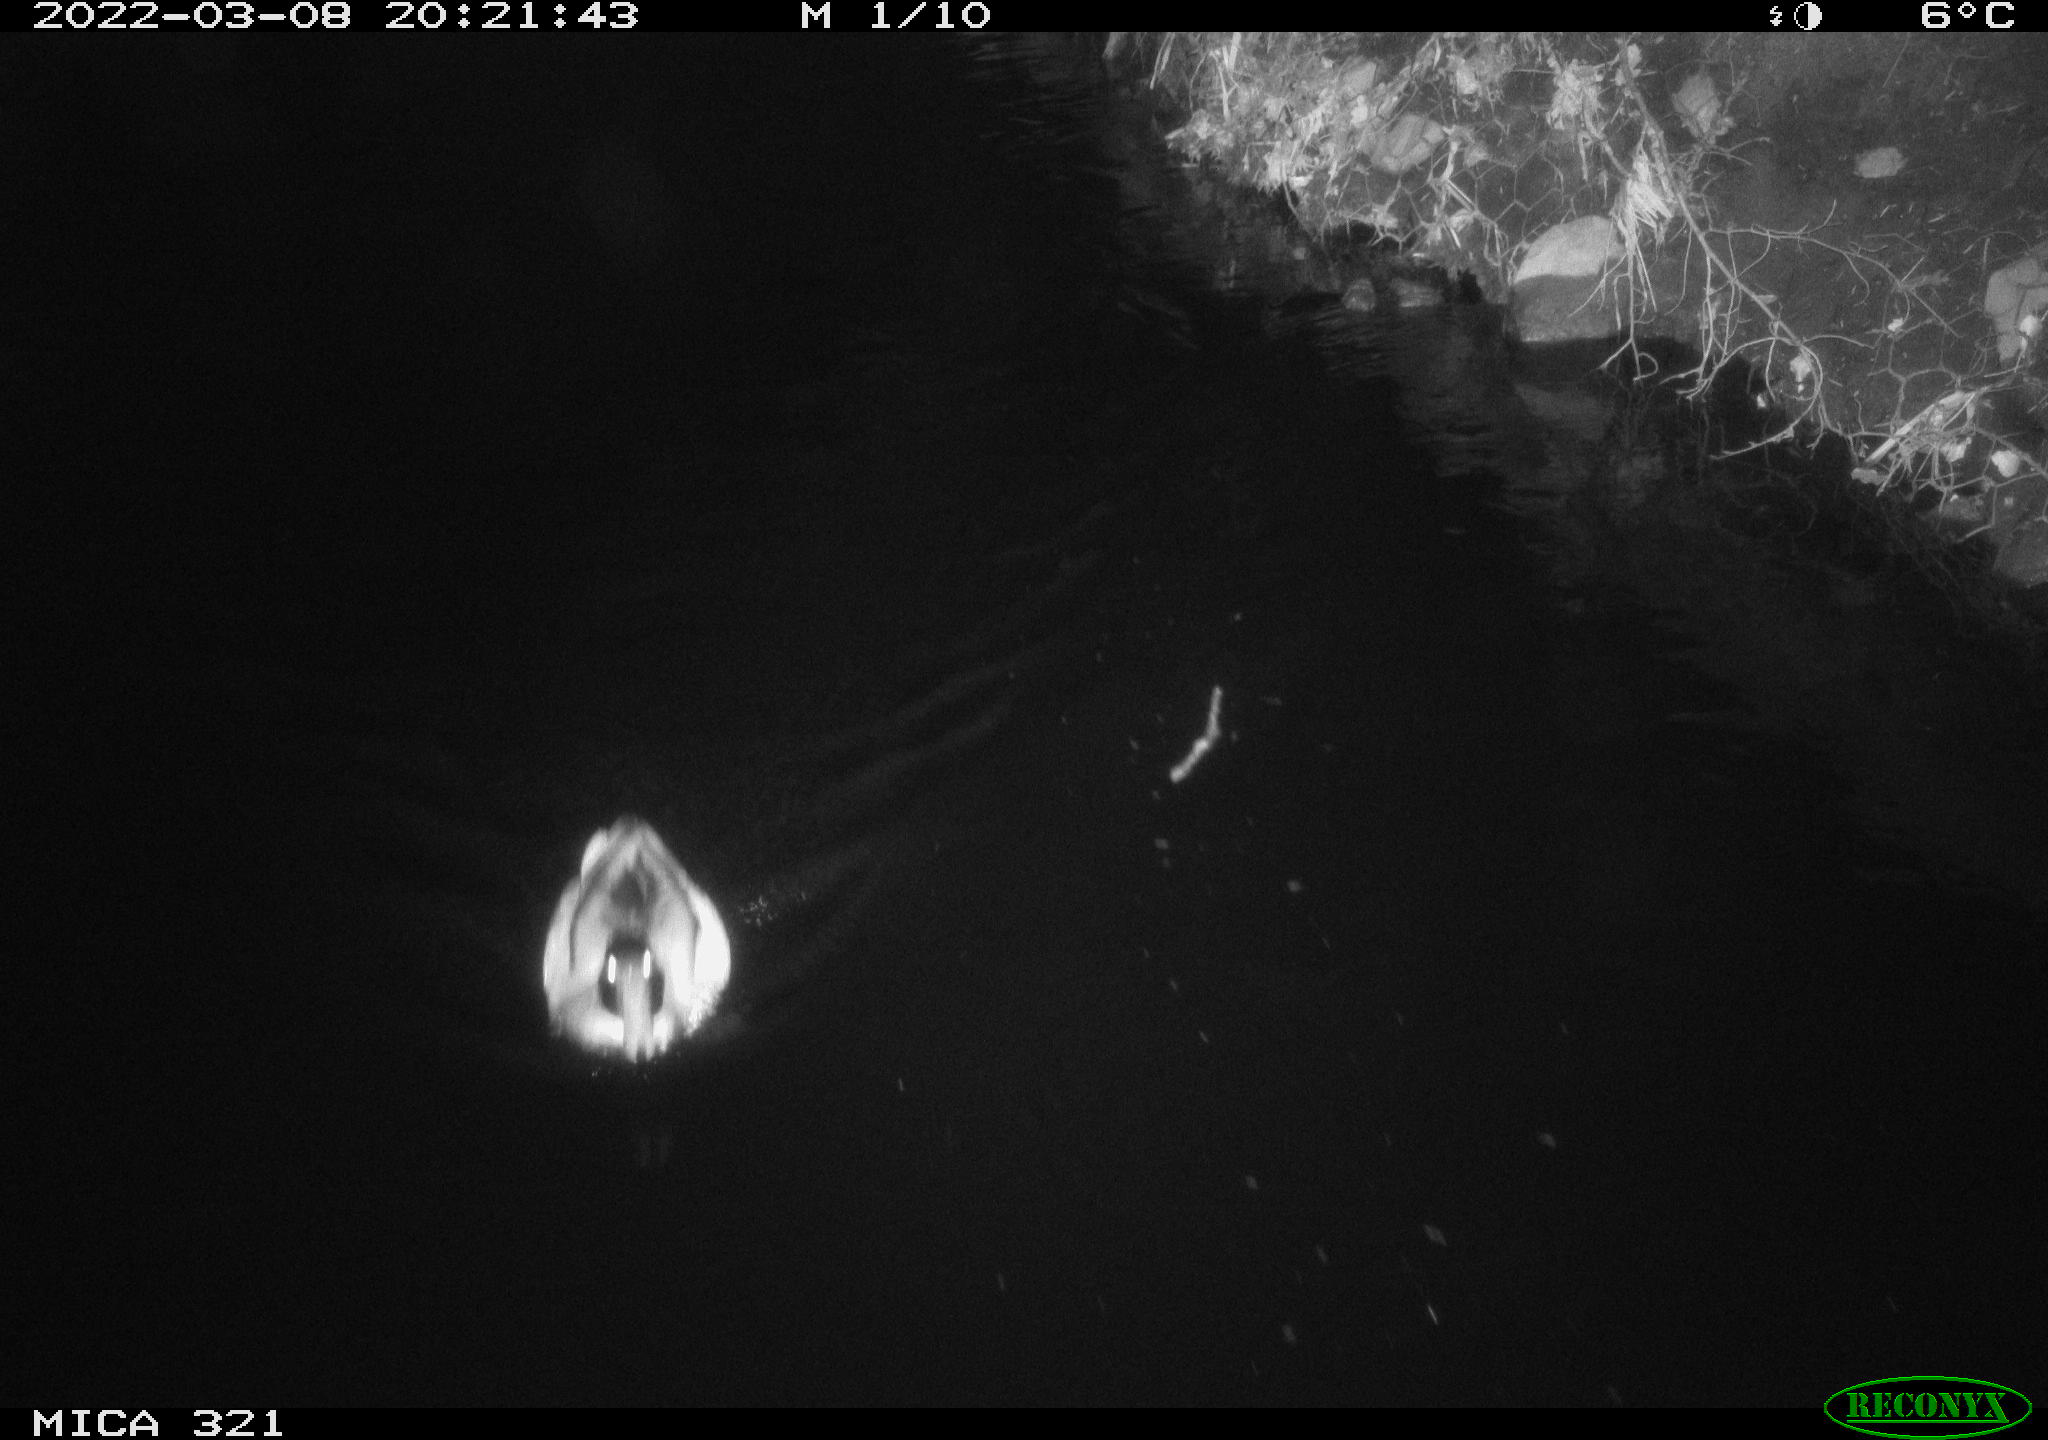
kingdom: Animalia
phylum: Chordata
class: Aves
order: Anseriformes
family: Anatidae
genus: Anas
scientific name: Anas platyrhynchos
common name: Mallard
